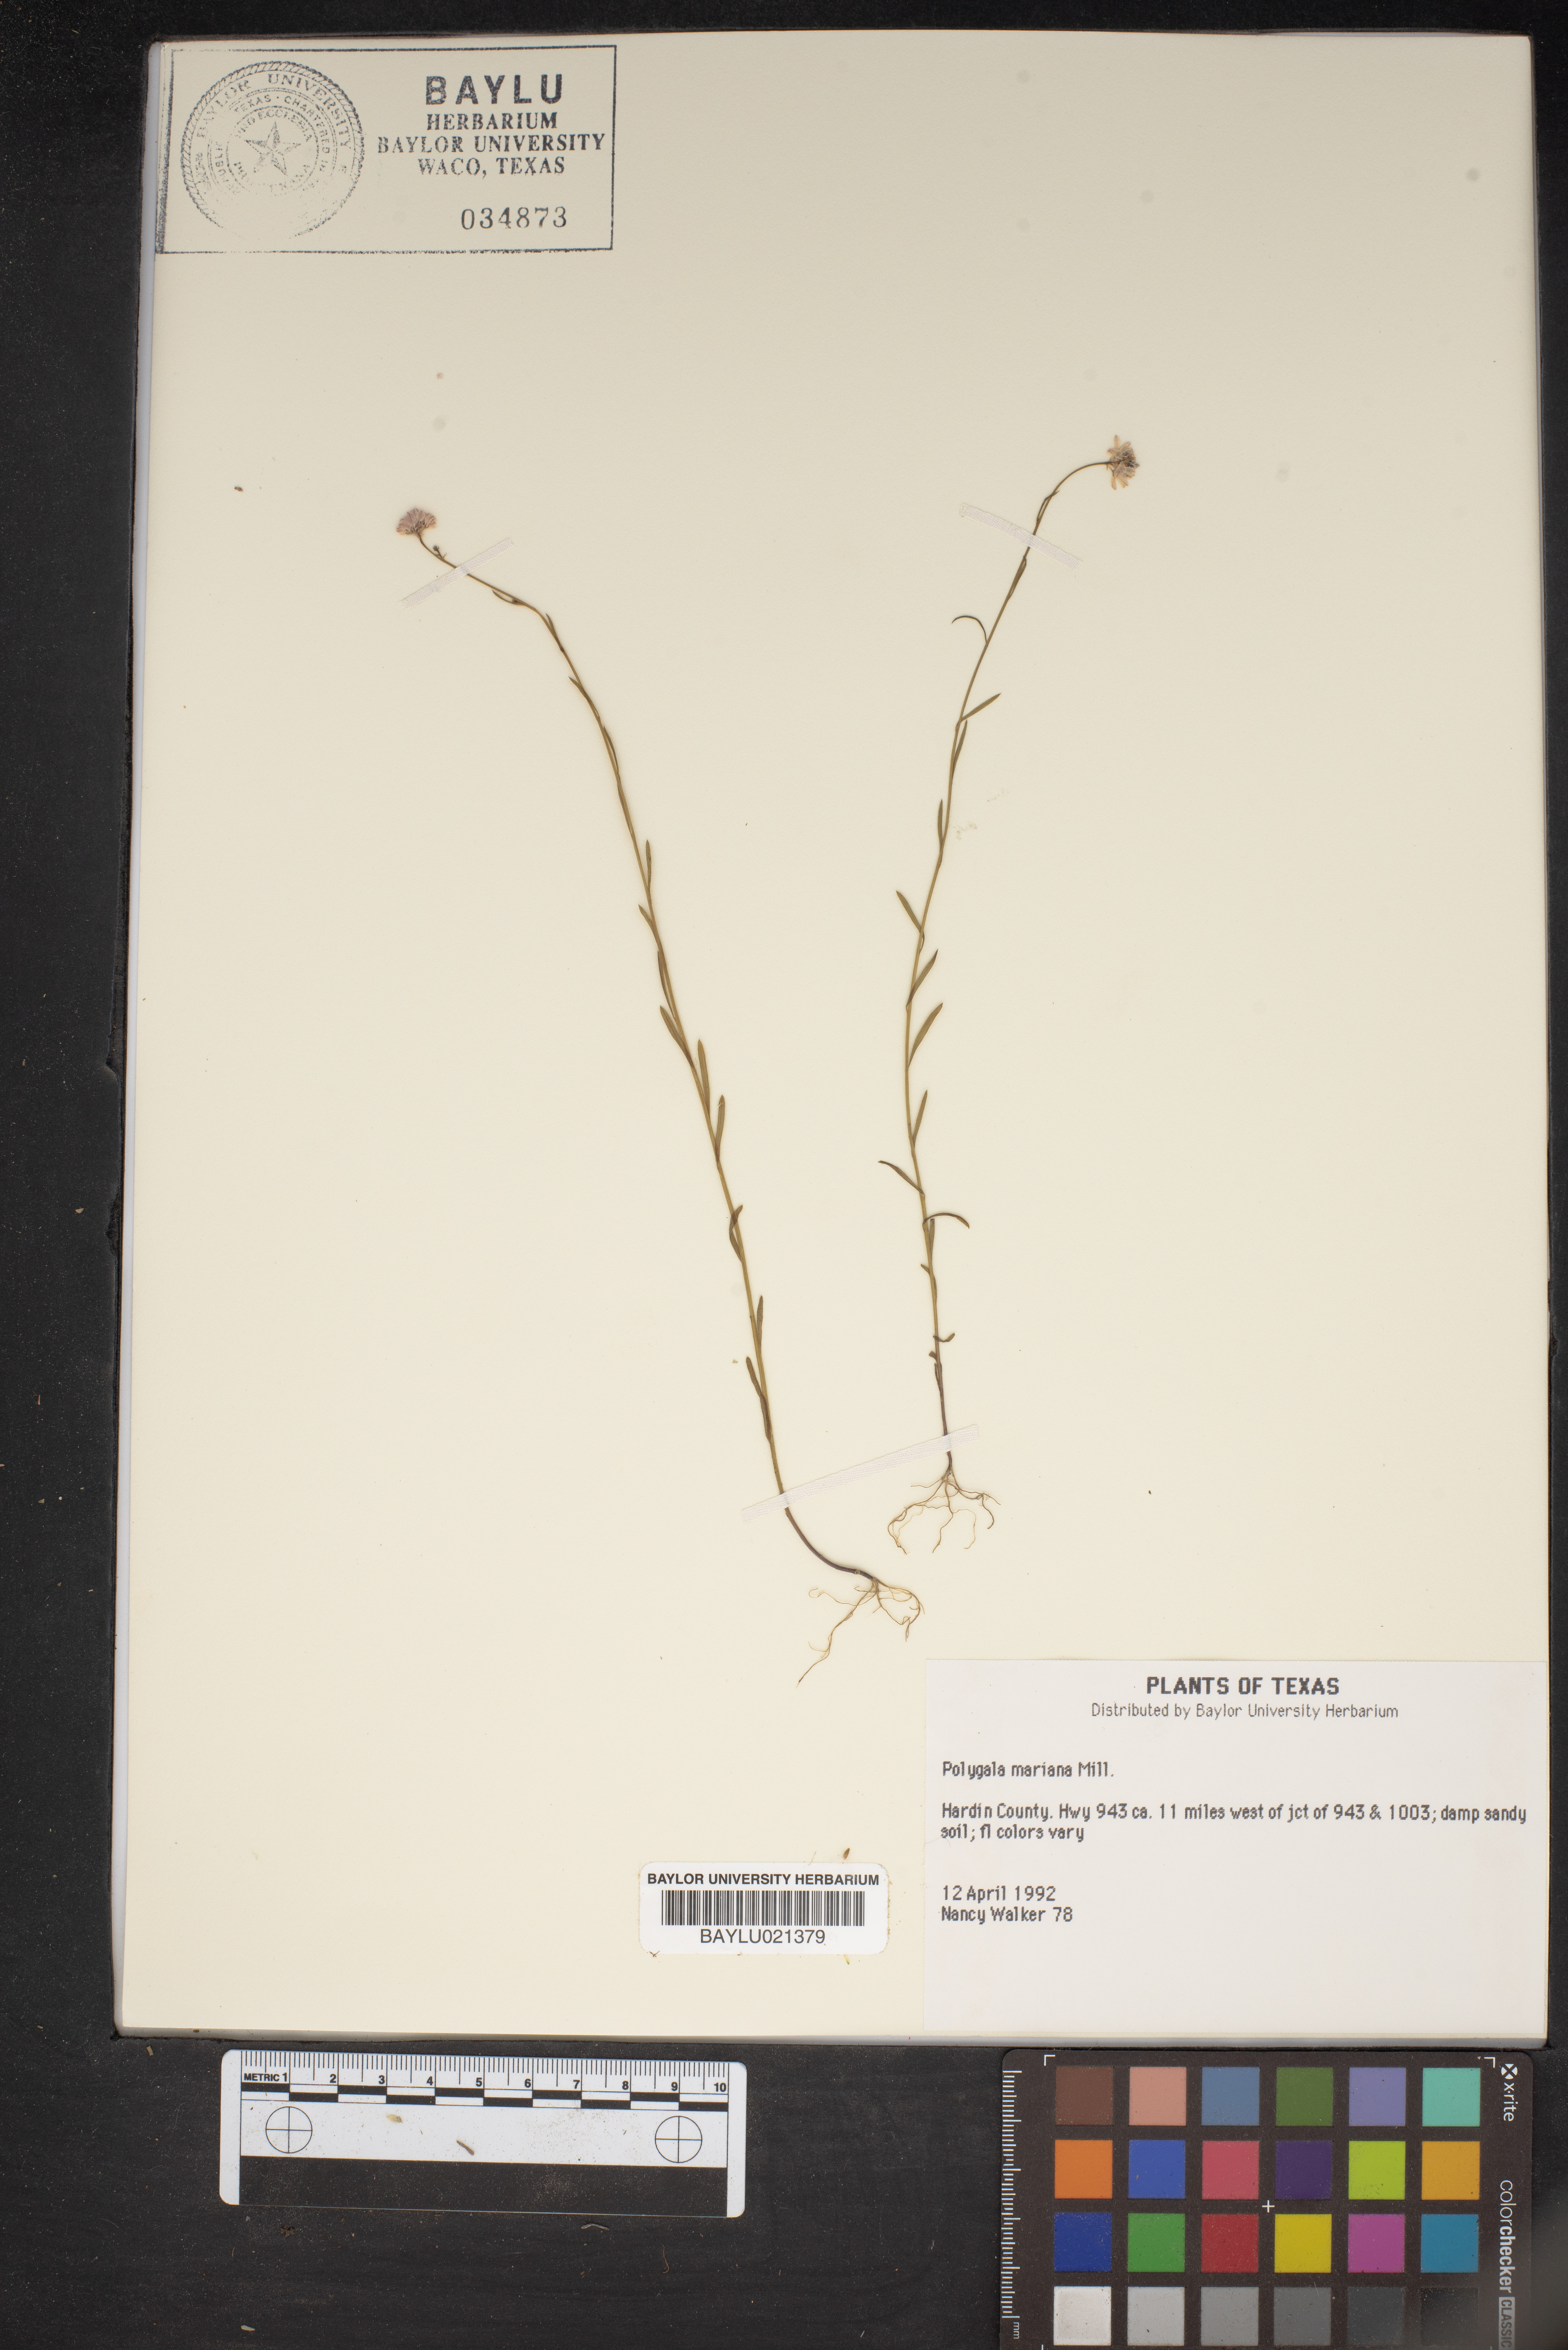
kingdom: Plantae
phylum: Tracheophyta
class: Magnoliopsida
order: Fabales
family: Polygalaceae
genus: Polygala
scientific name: Polygala mariana
